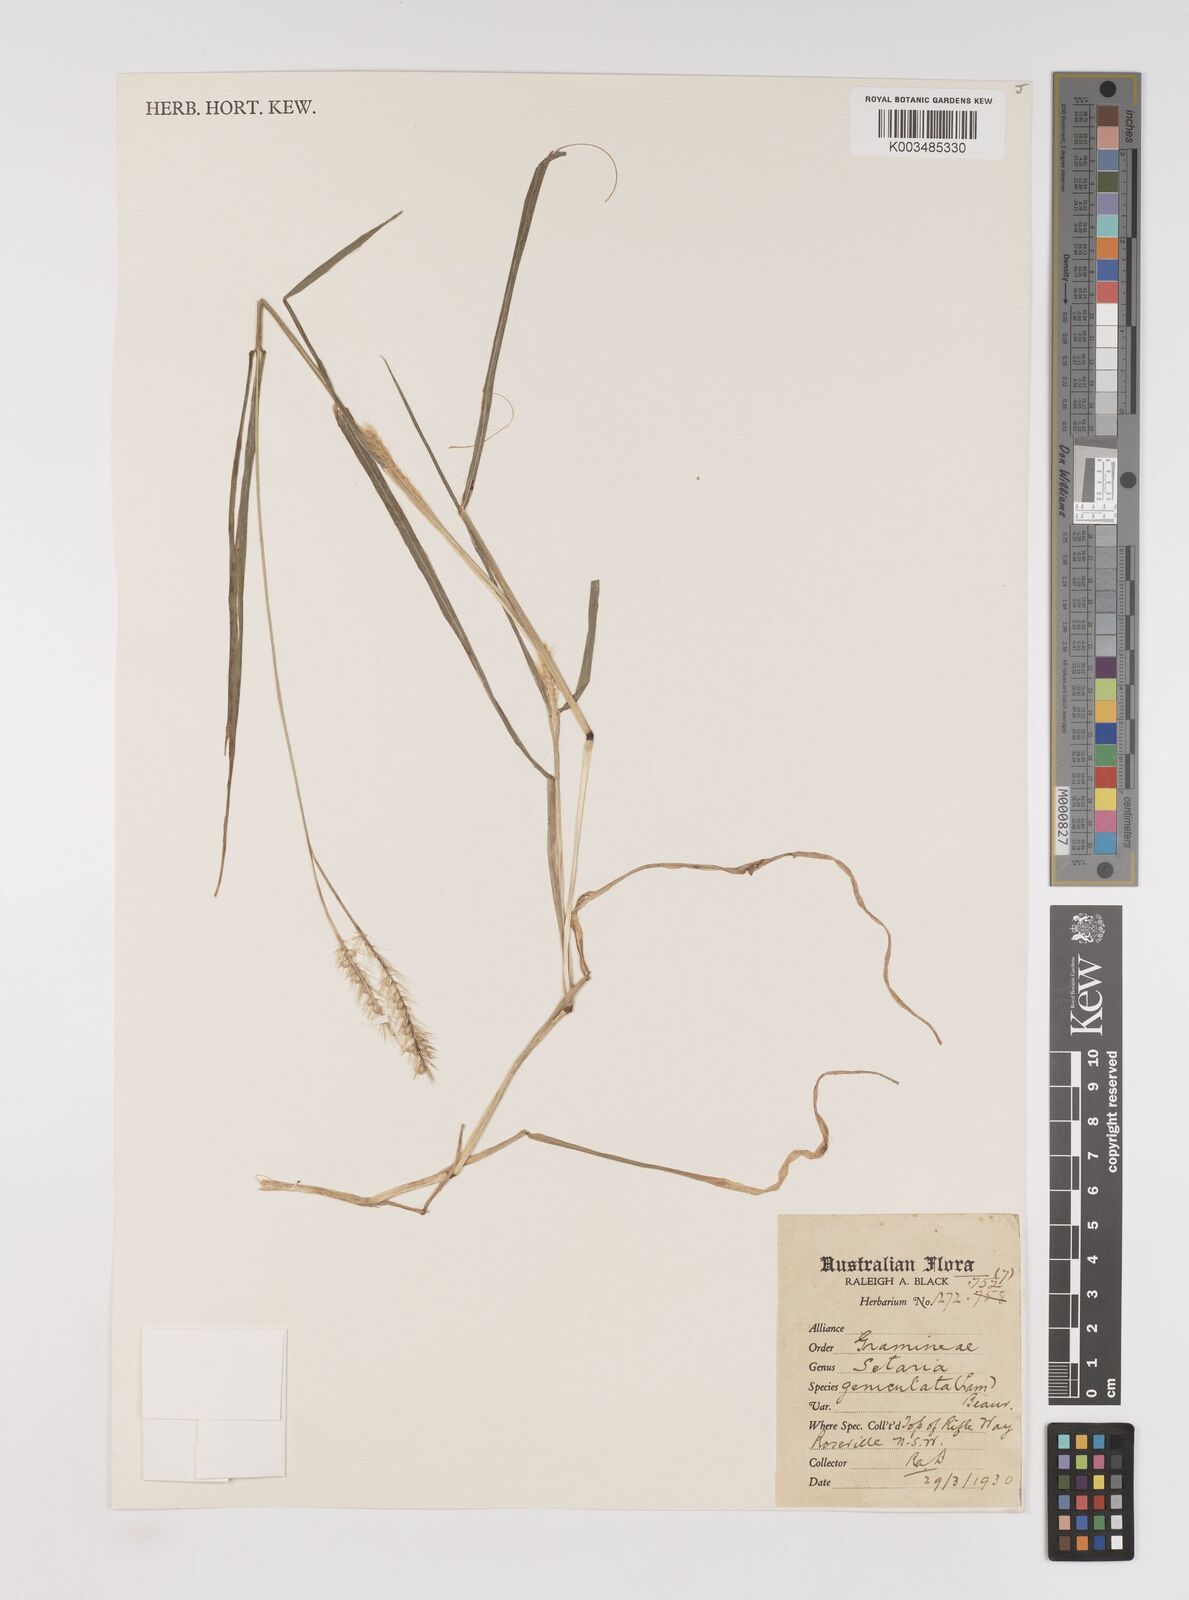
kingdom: Plantae
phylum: Tracheophyta
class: Liliopsida
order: Poales
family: Poaceae
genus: Setaria
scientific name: Setaria parviflora
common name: Knotroot bristle-grass
